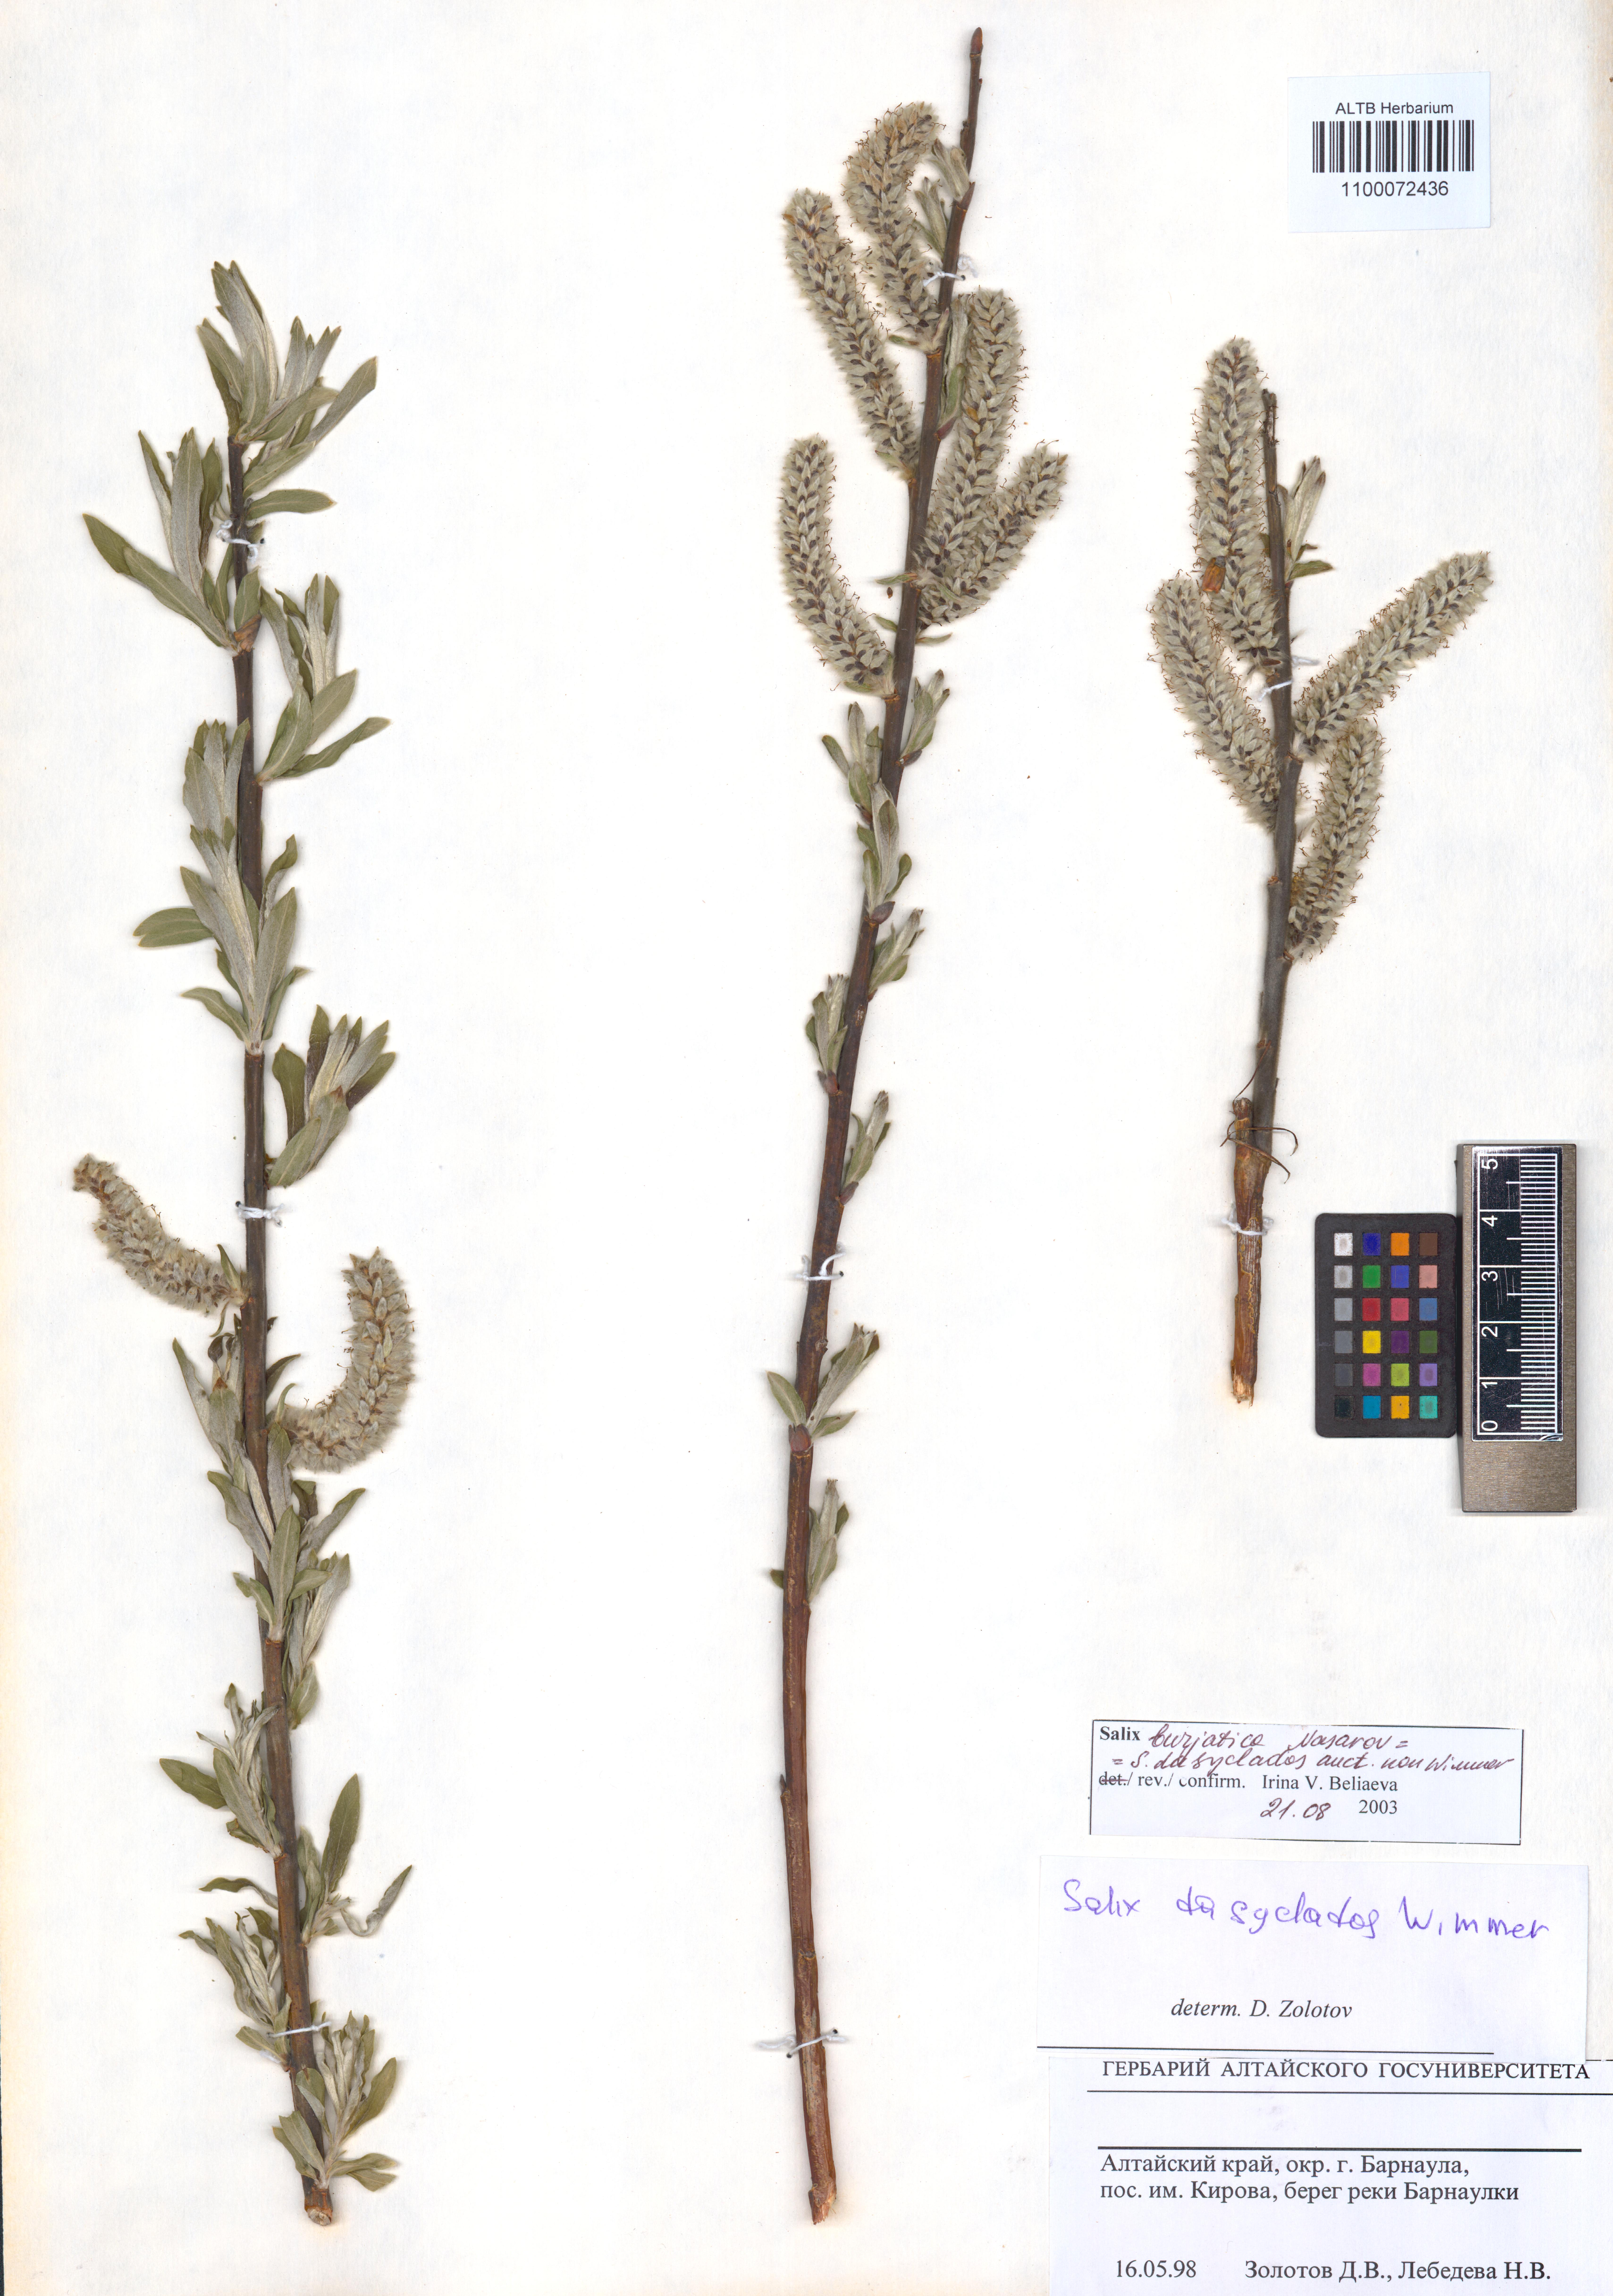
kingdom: Plantae
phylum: Tracheophyta
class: Magnoliopsida
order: Malpighiales
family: Salicaceae
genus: Salix
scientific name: Salix gmelinii
